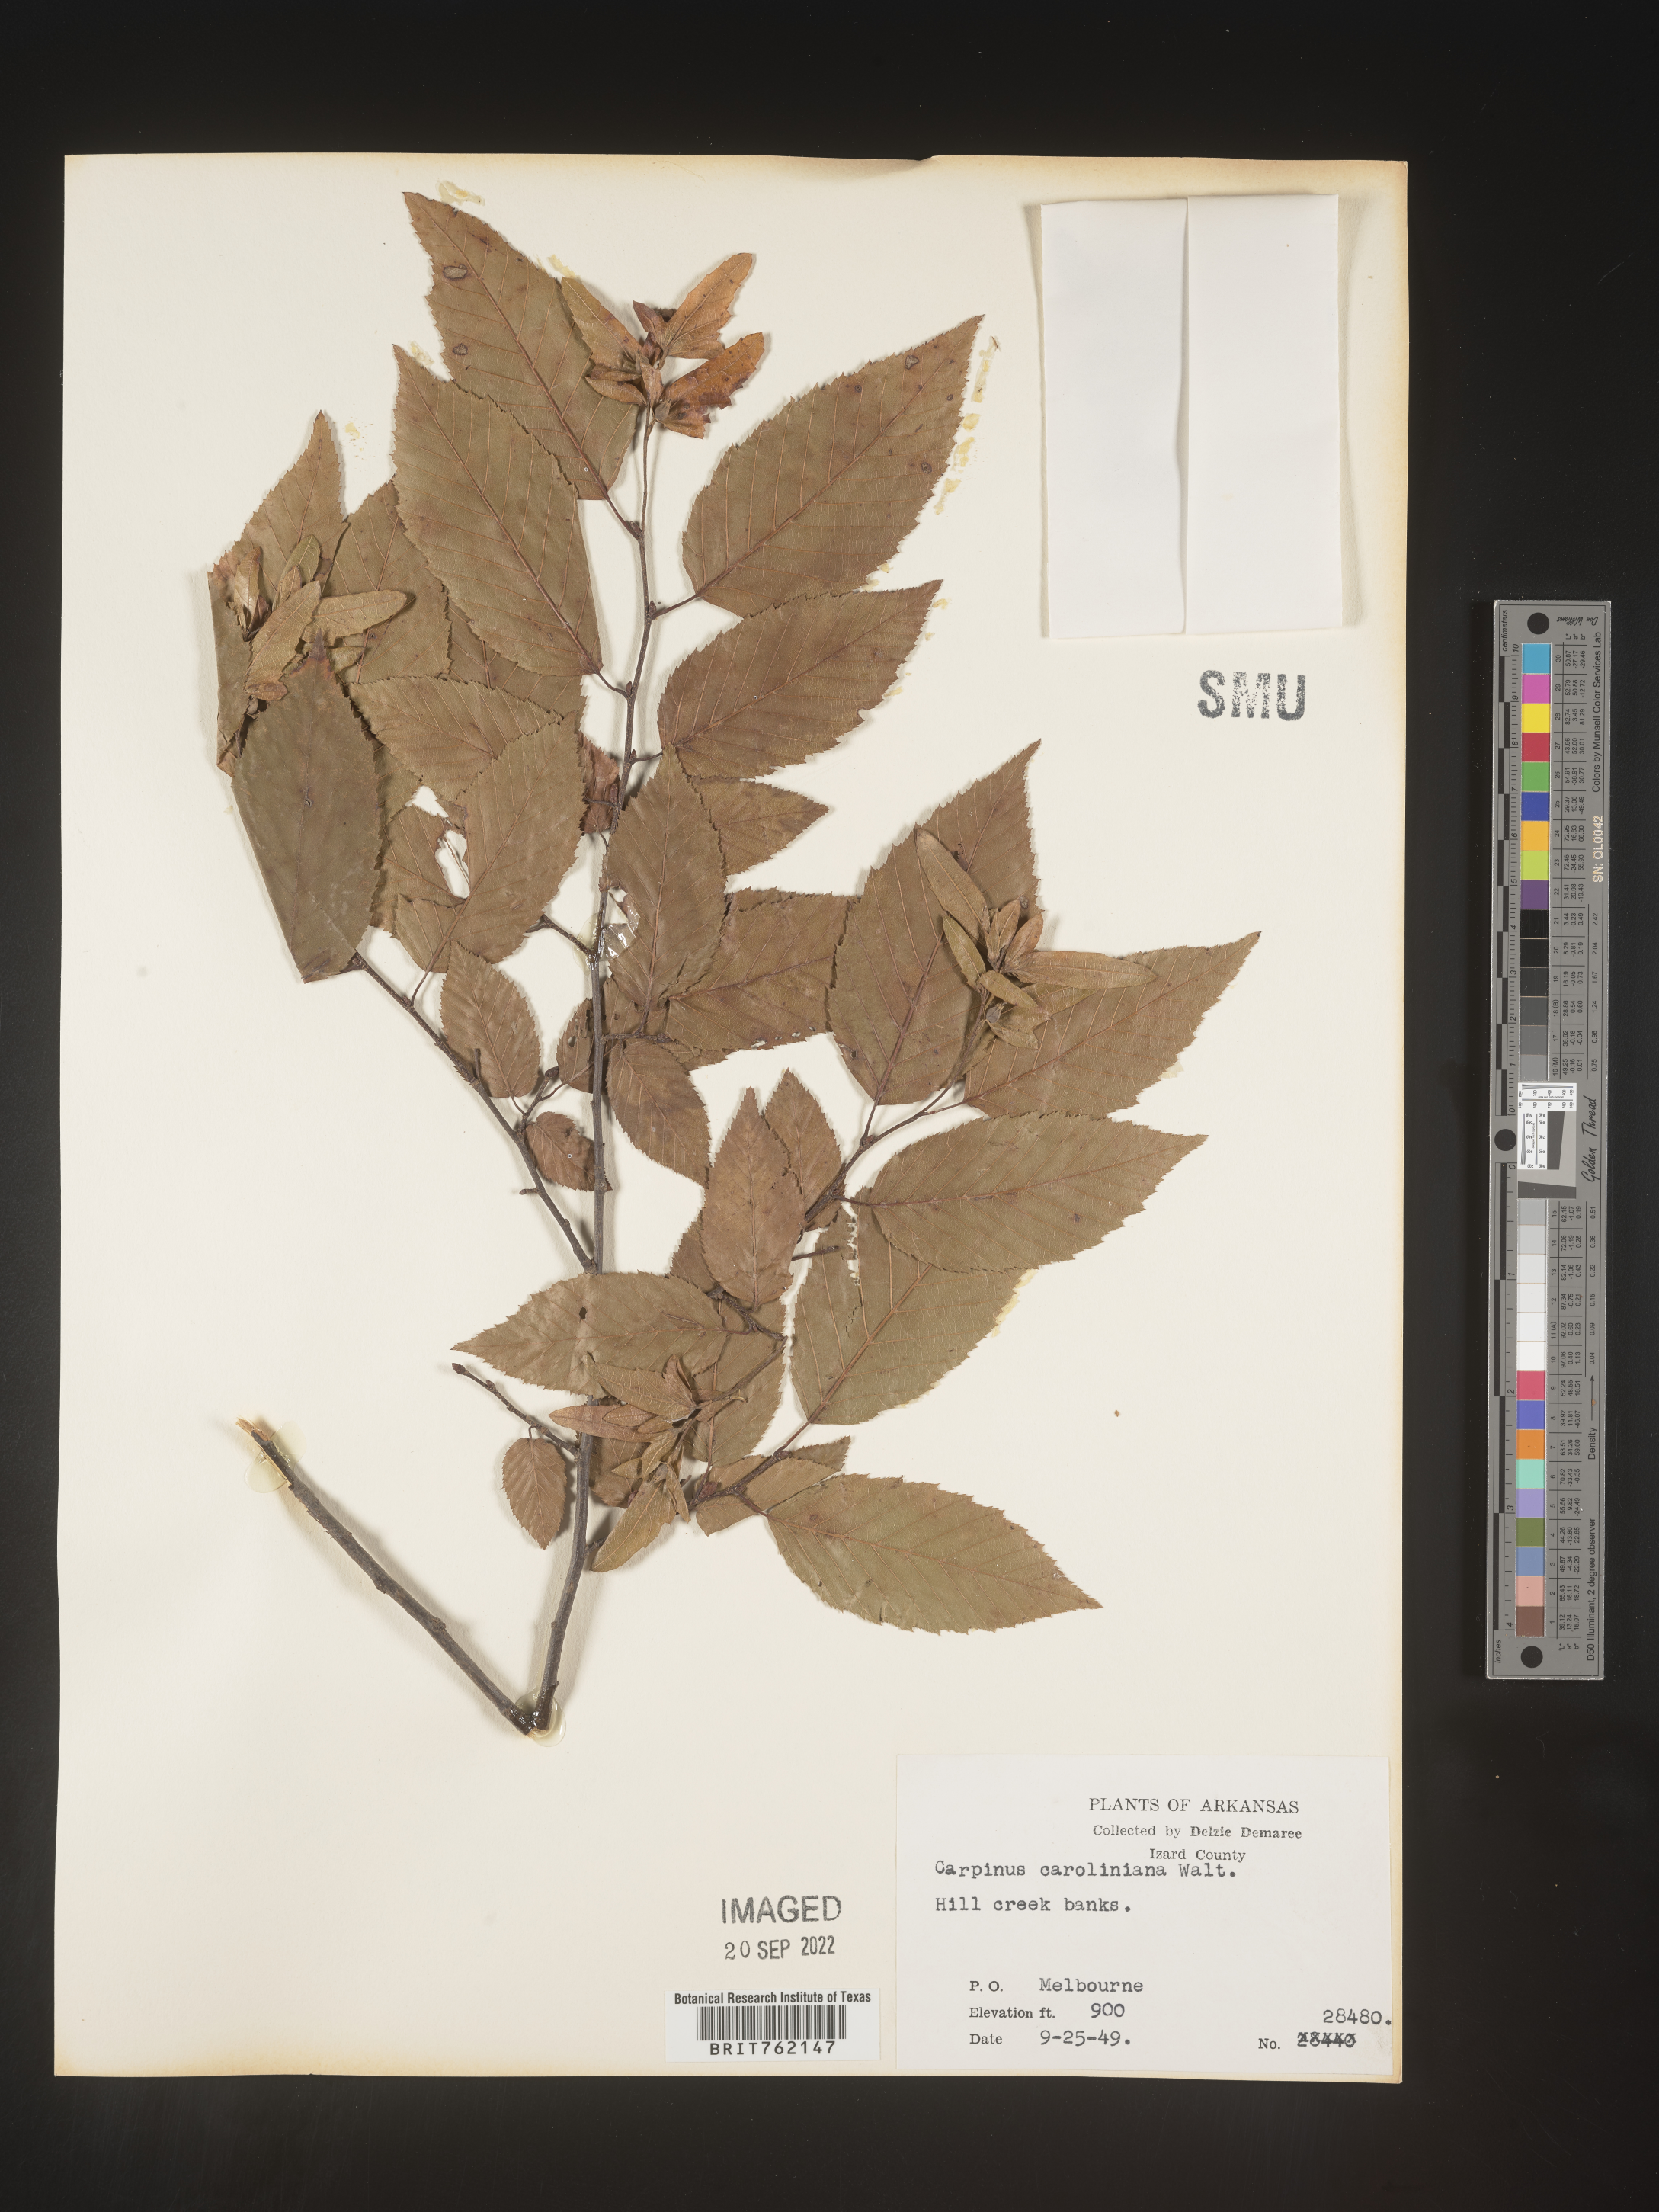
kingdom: Plantae
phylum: Tracheophyta
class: Magnoliopsida
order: Fagales
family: Betulaceae
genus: Carpinus
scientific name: Carpinus caroliniana
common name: American hornbeam
